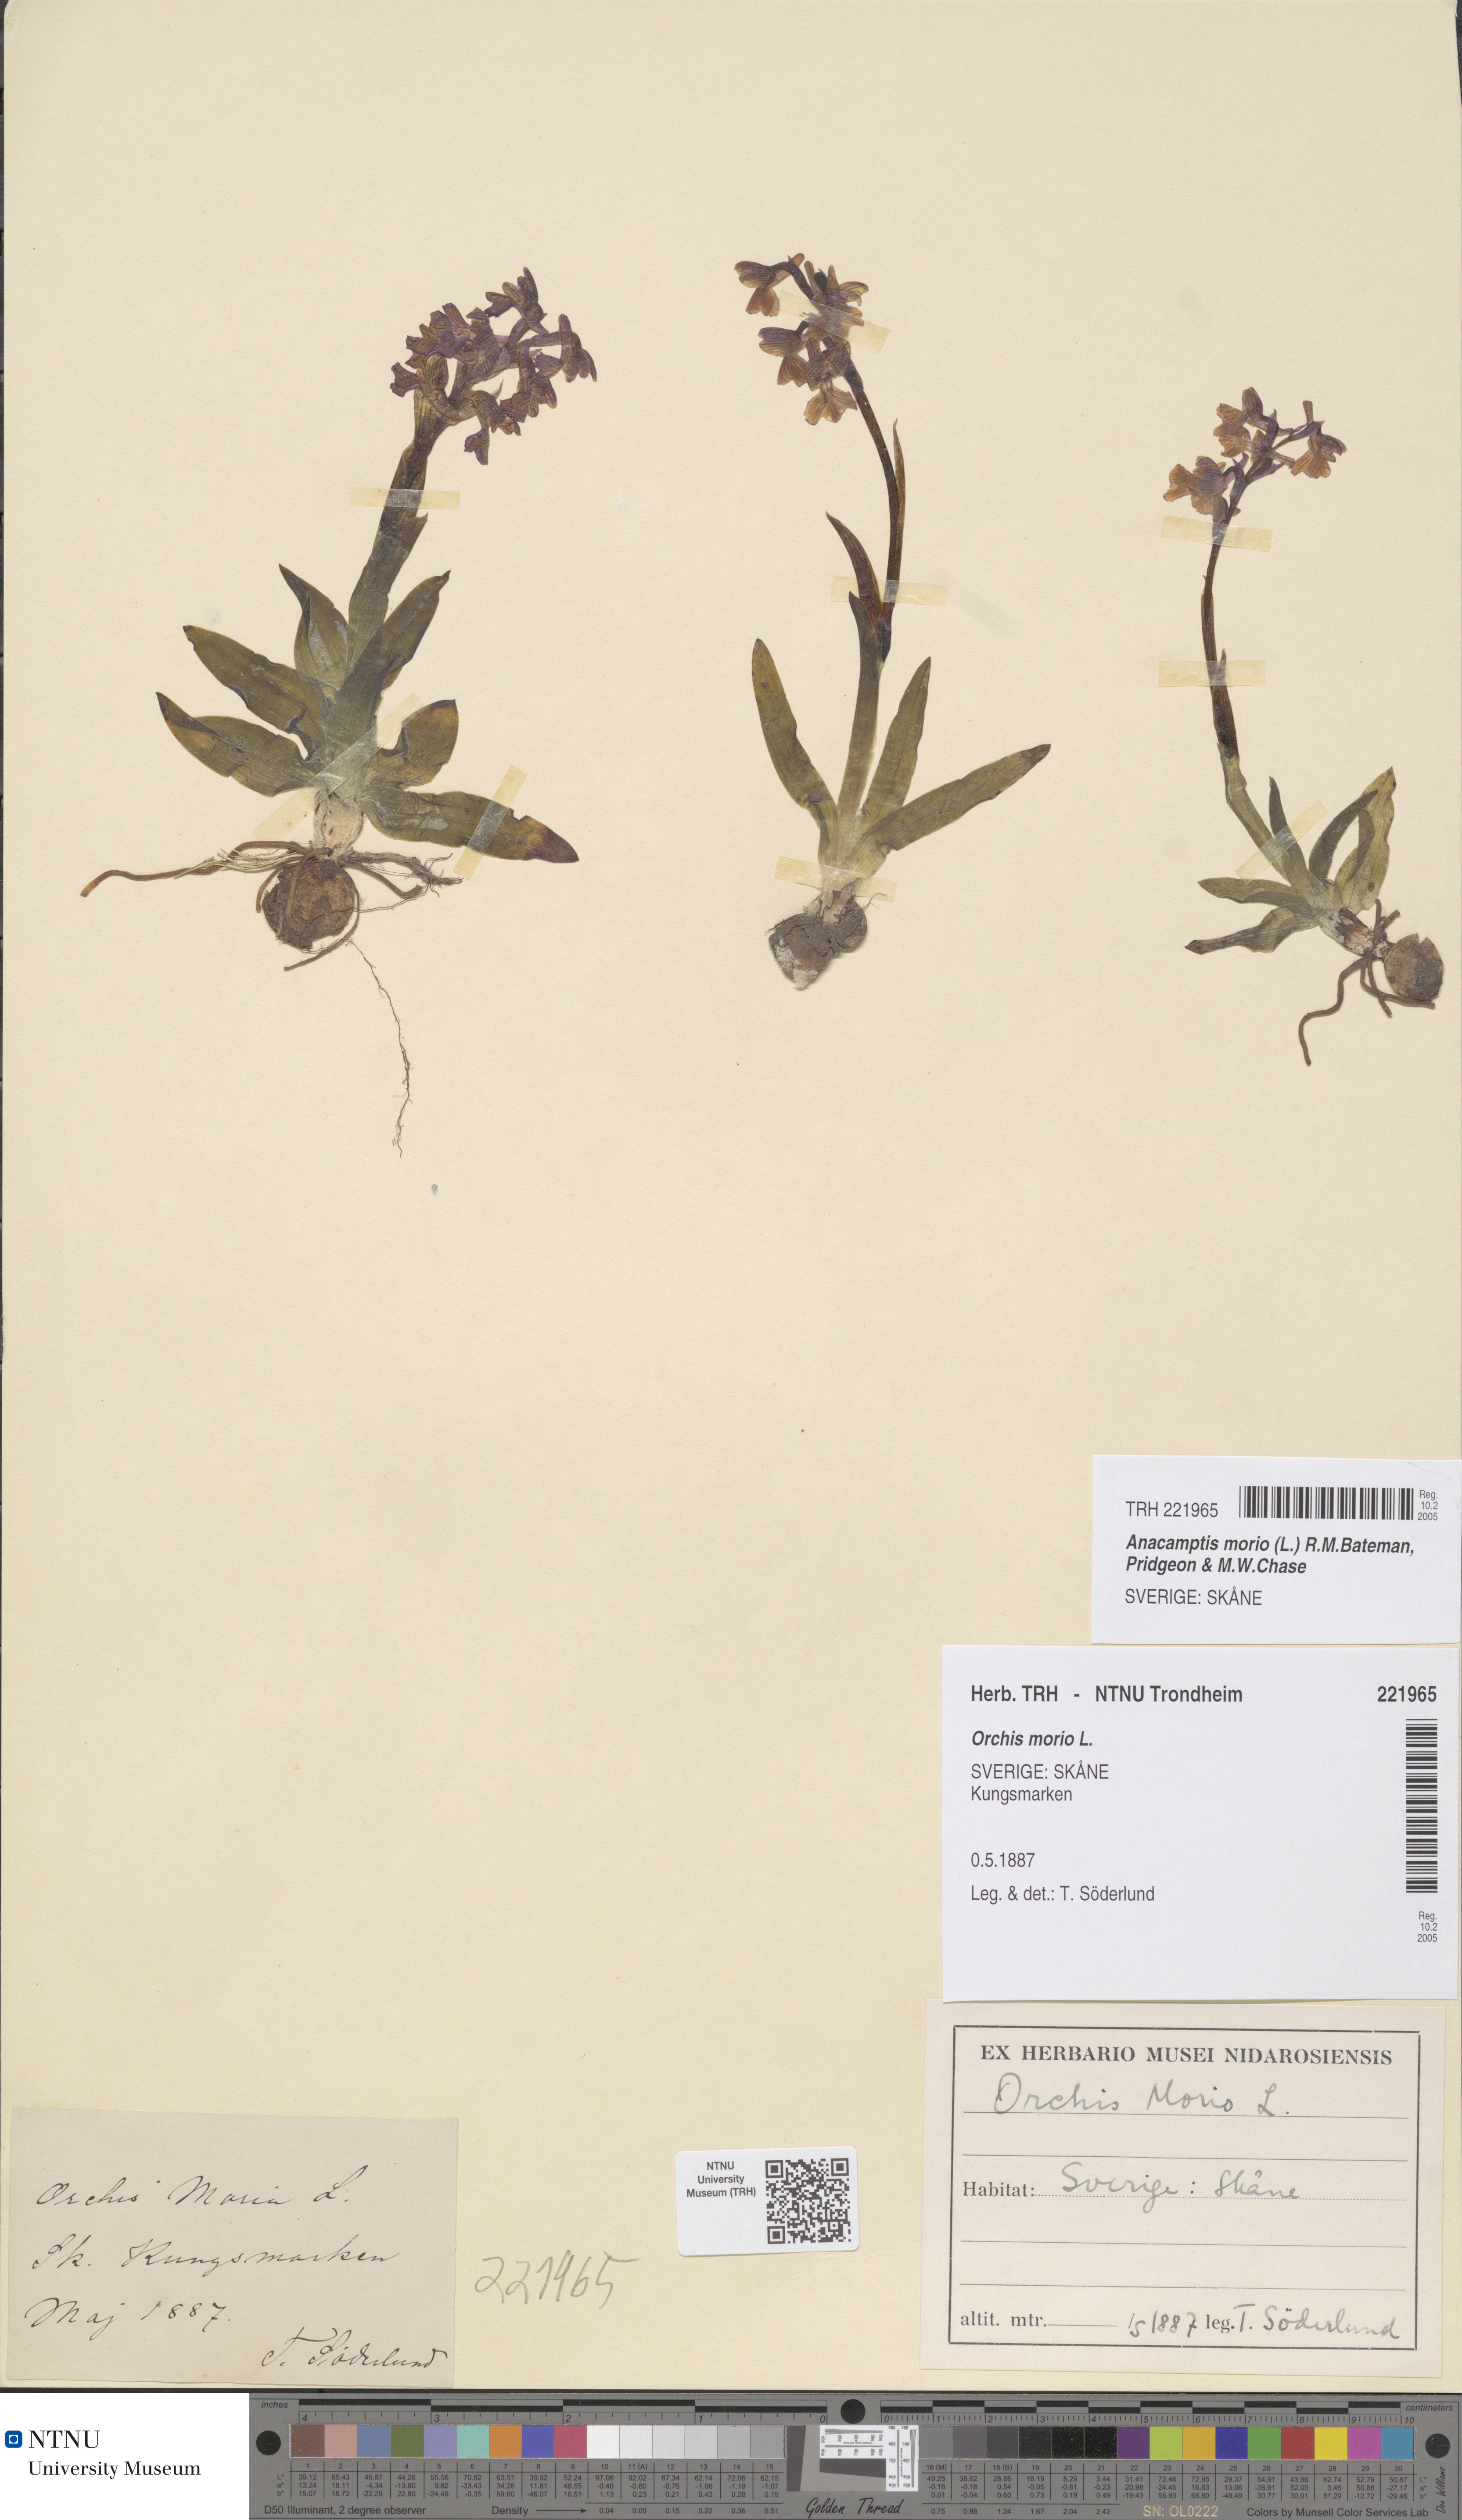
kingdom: Plantae
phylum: Tracheophyta
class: Liliopsida
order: Asparagales
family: Orchidaceae
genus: Anacamptis
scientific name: Anacamptis morio
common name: Green-winged orchid
